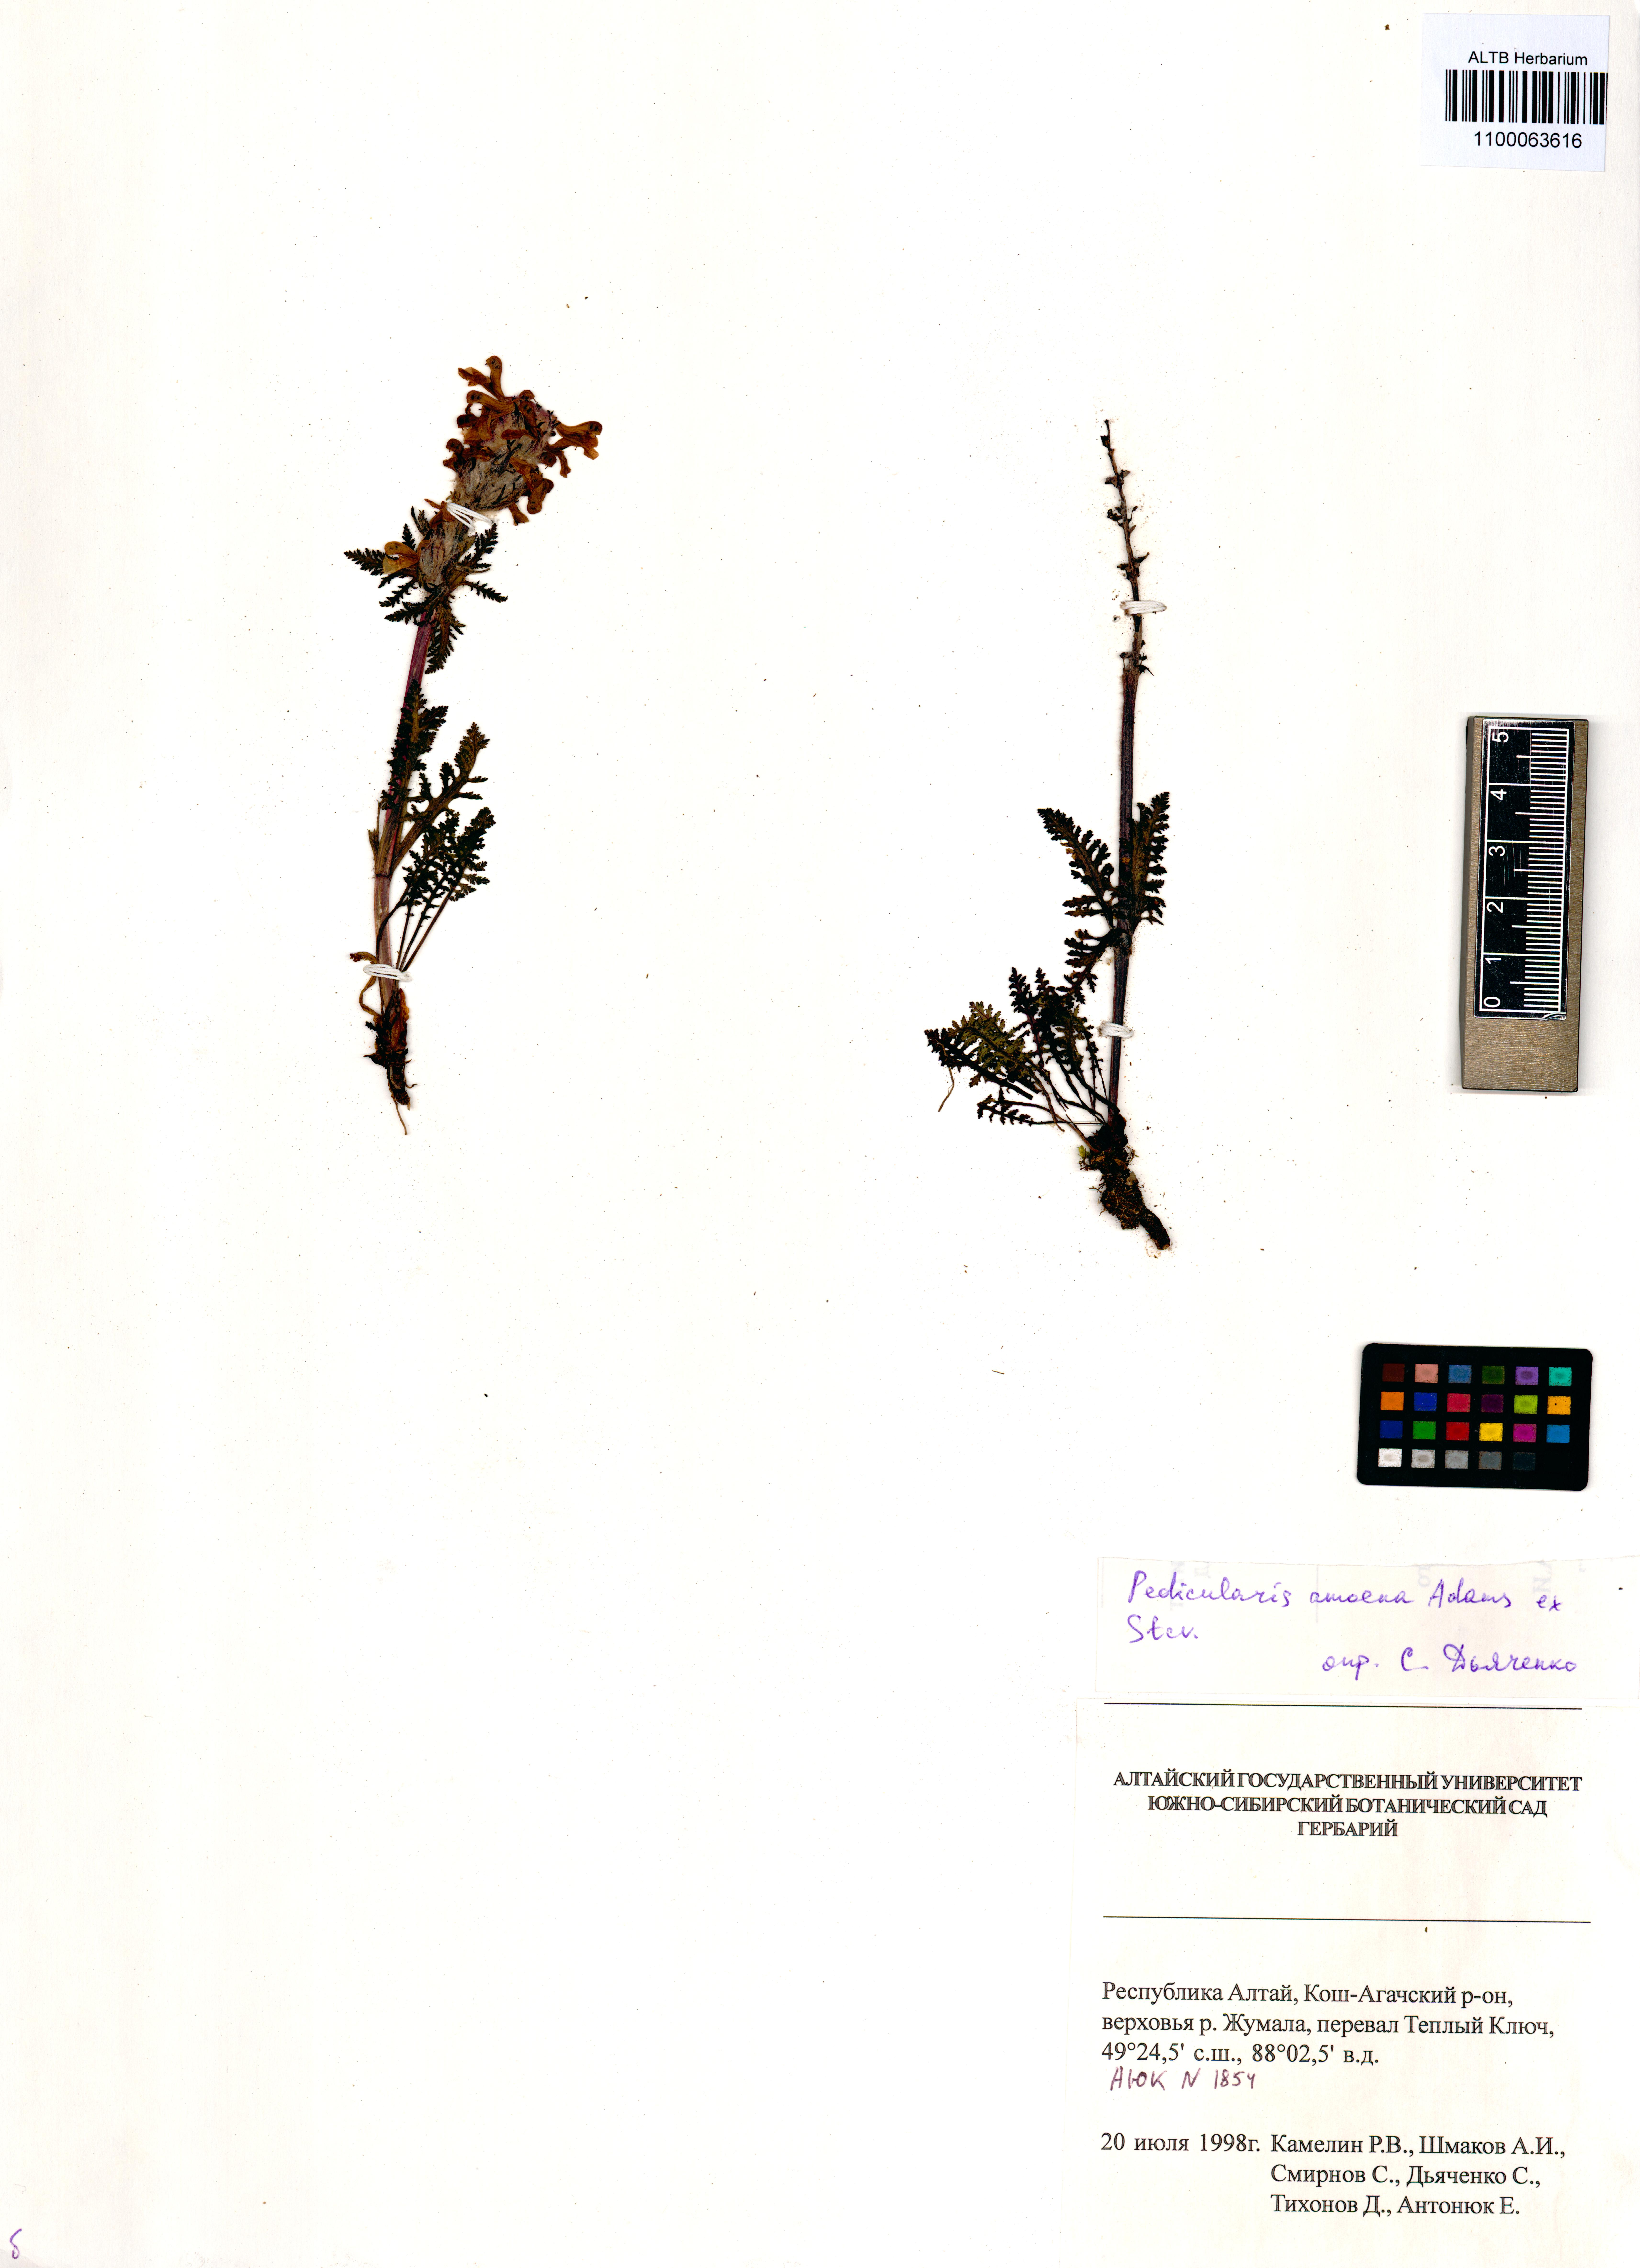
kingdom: Plantae
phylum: Tracheophyta
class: Magnoliopsida
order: Lamiales
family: Orobanchaceae
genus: Pedicularis
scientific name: Pedicularis amoena
